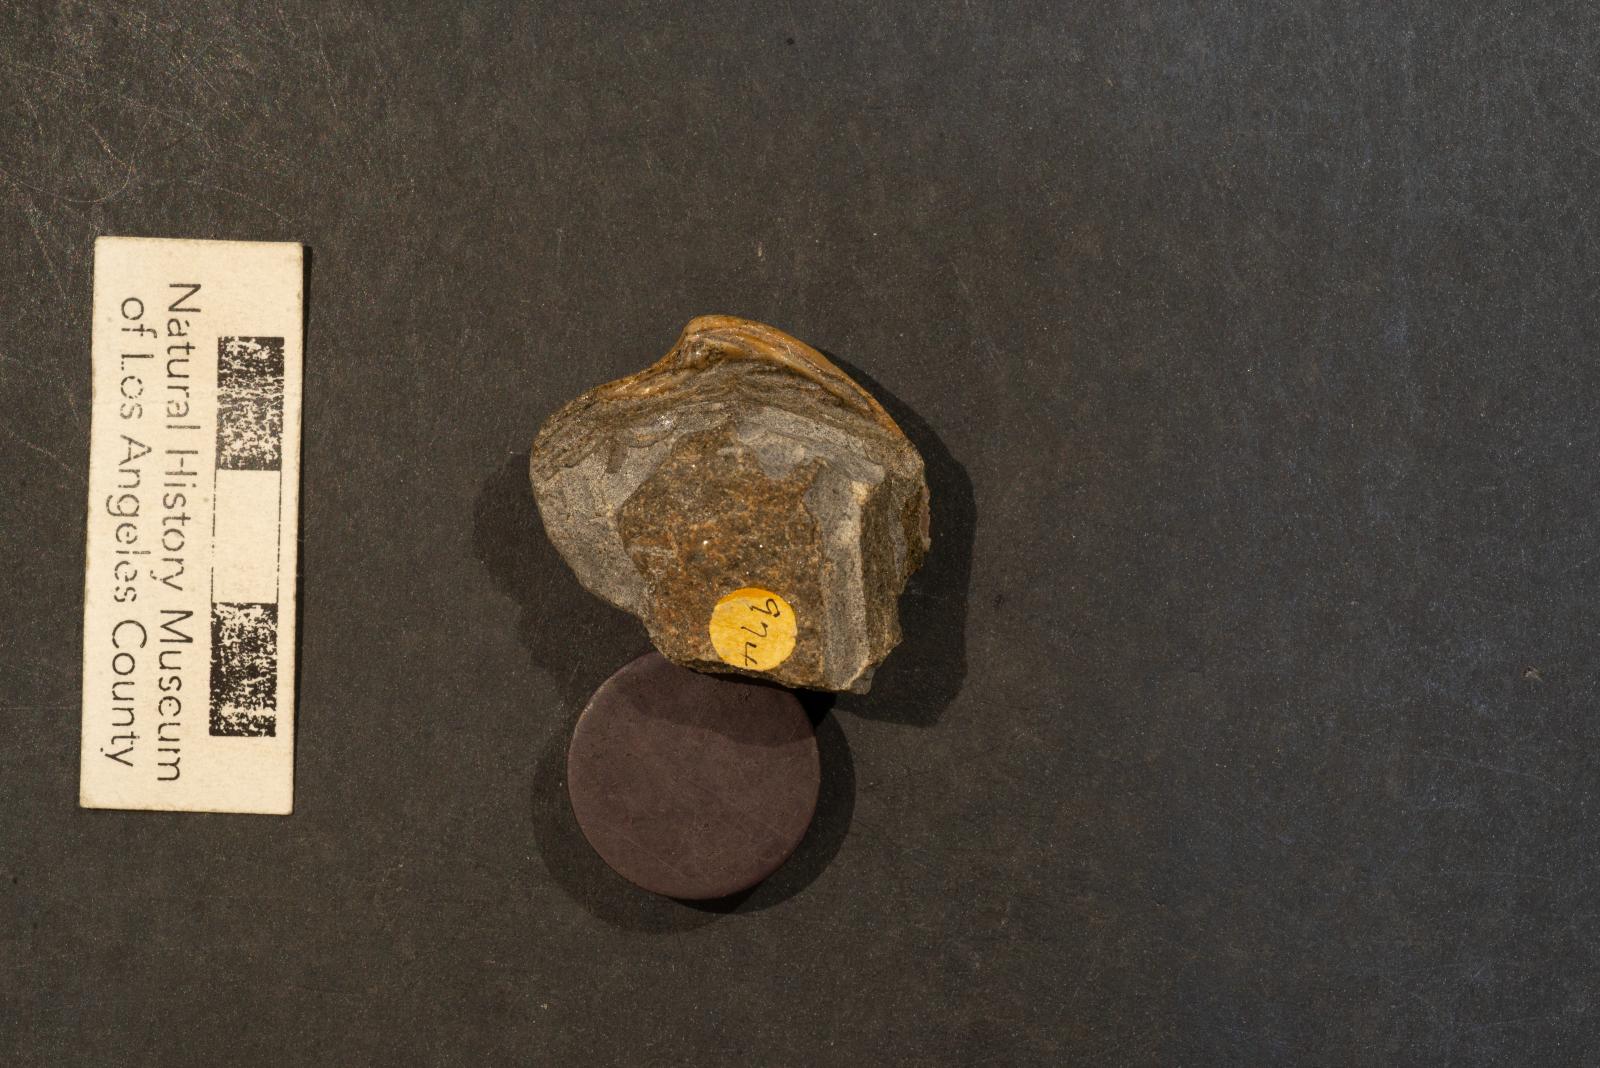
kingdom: Animalia
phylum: Mollusca
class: Bivalvia
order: Venerida
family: Veneridae
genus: Calva
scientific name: Calva campanae
